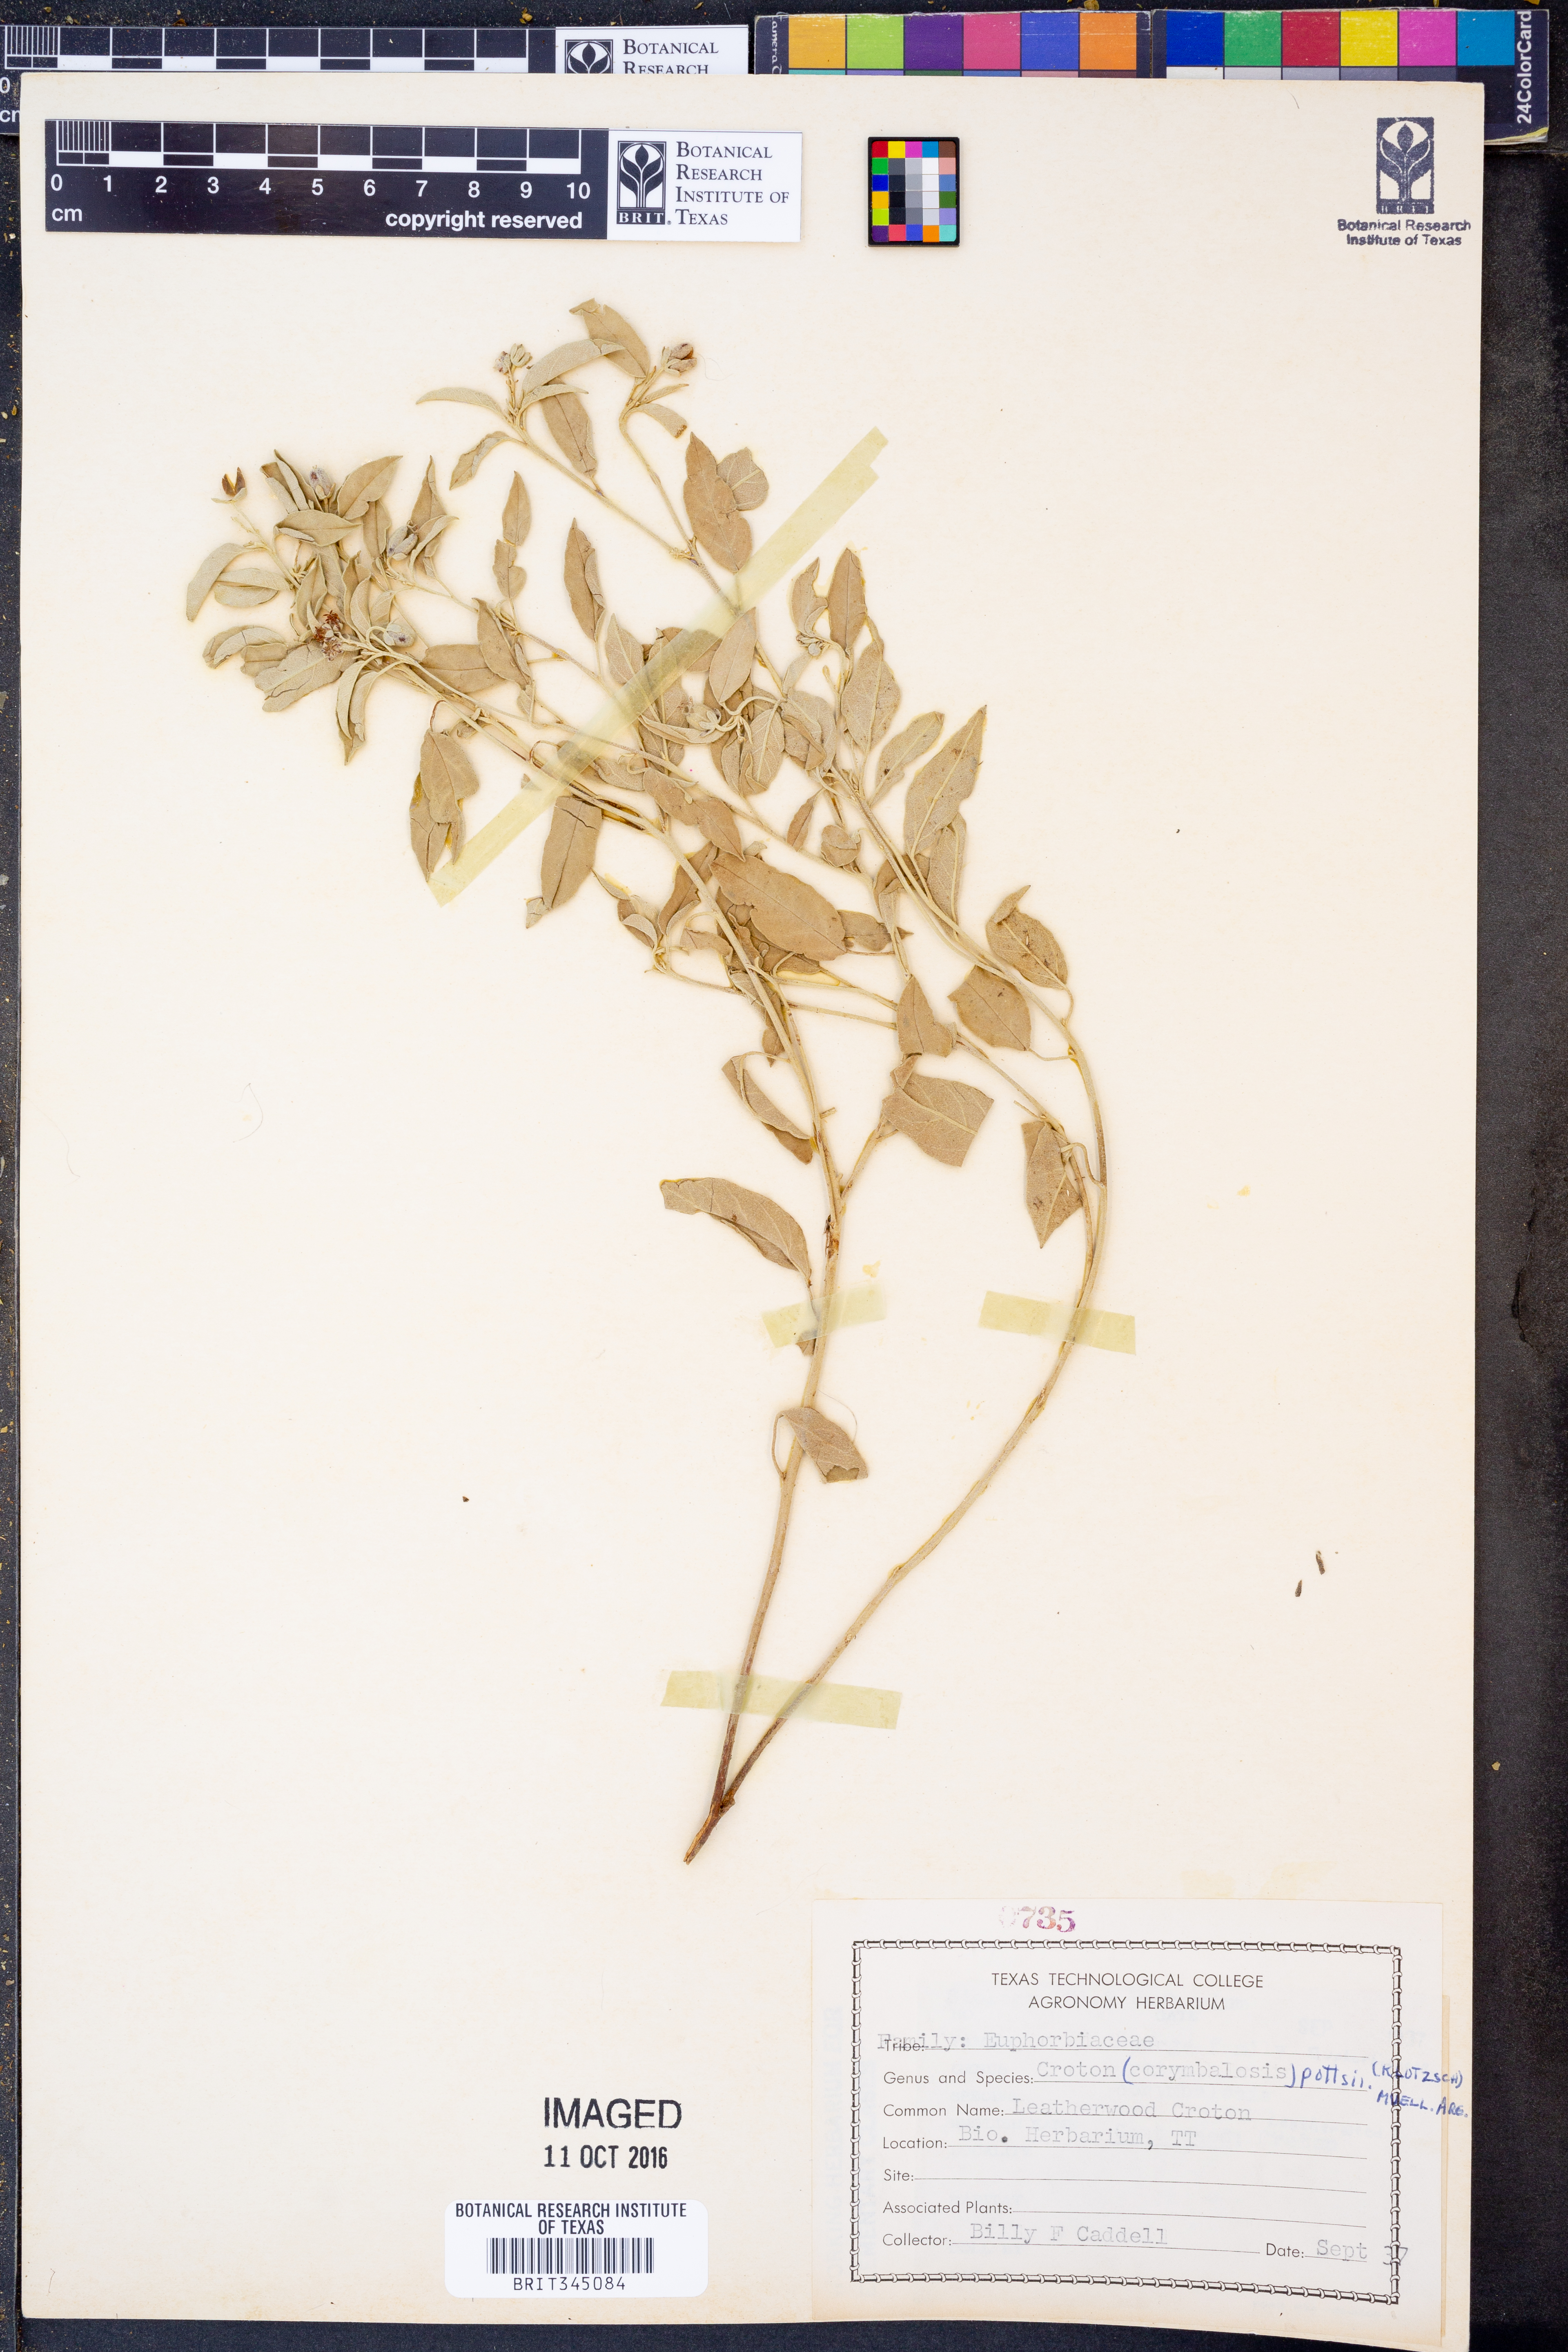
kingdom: Plantae
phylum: Tracheophyta
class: Magnoliopsida
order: Malpighiales
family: Euphorbiaceae
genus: Croton
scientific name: Croton pottsii
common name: Leatherweed
